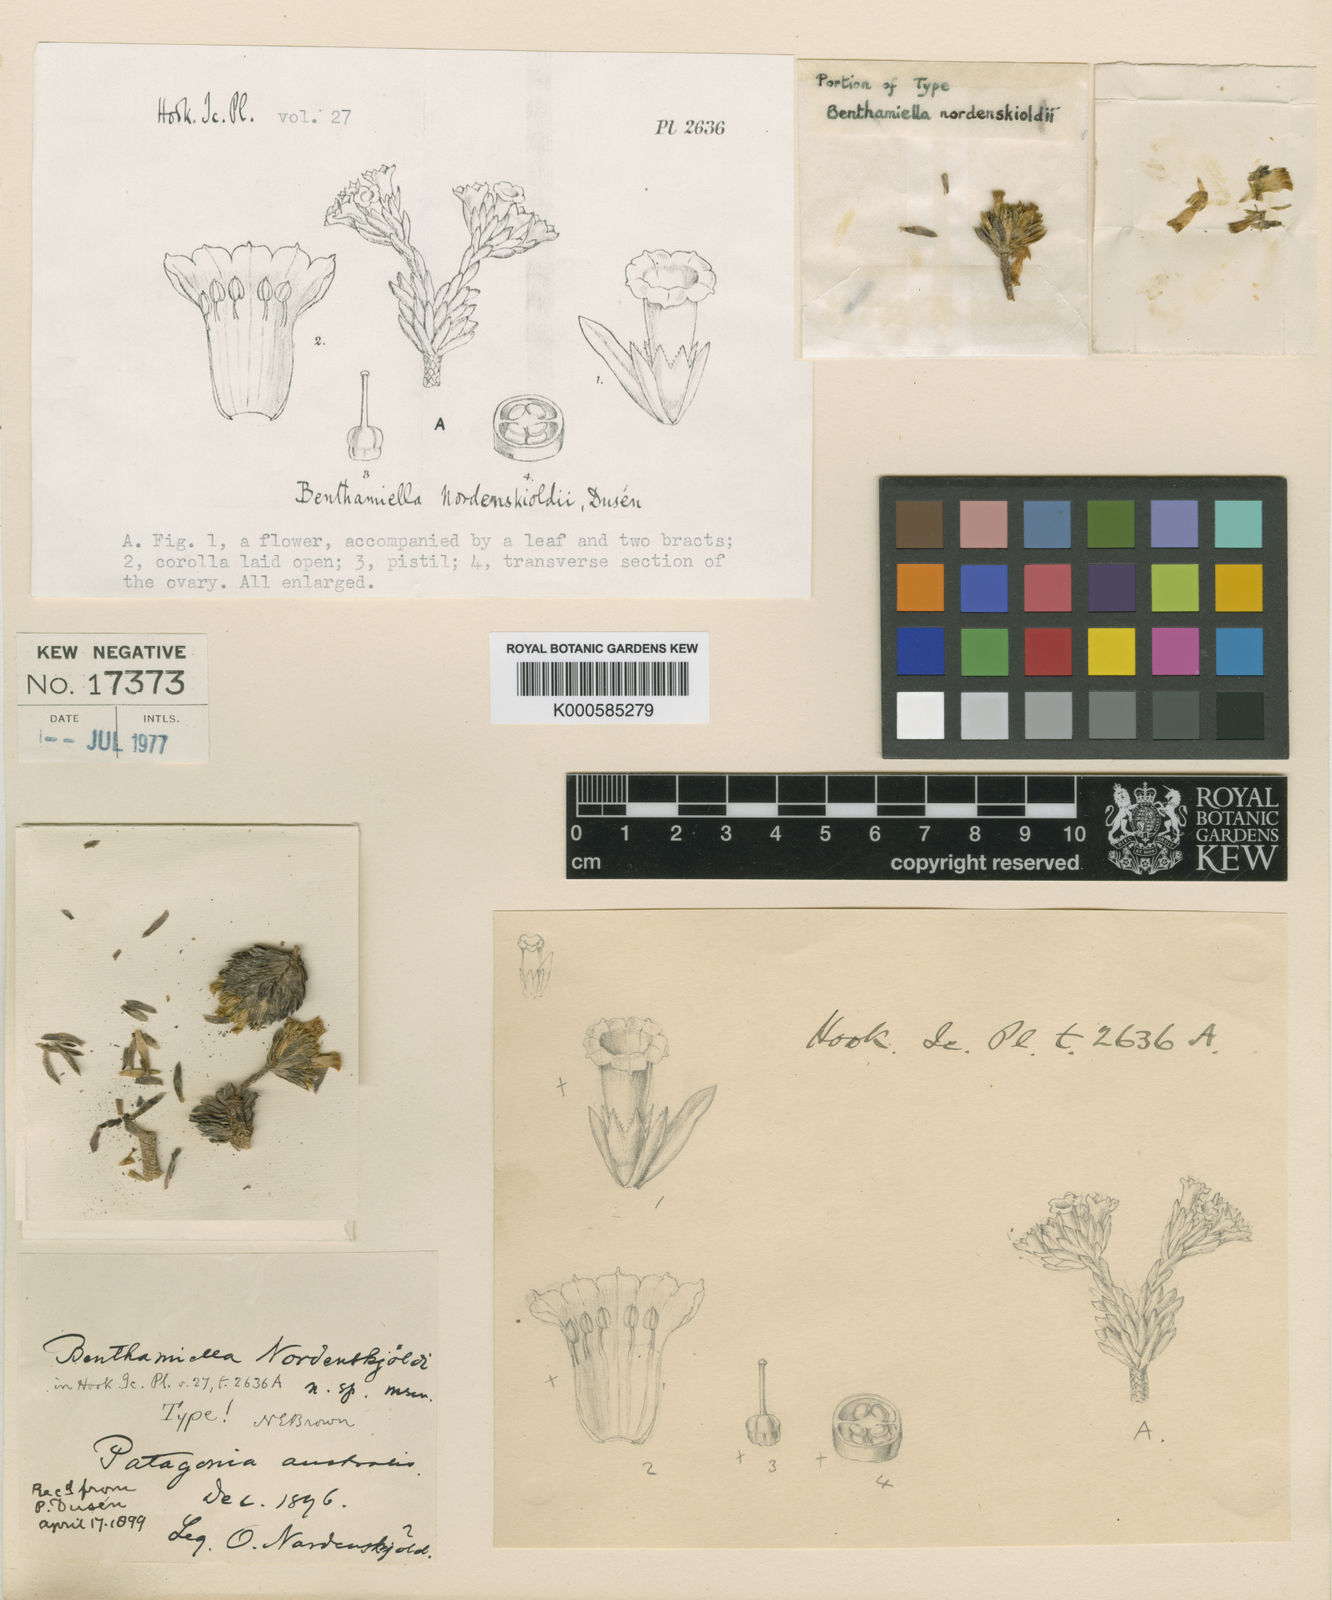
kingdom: Plantae
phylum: Tracheophyta
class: Magnoliopsida
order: Solanales
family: Solanaceae
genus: Benthamiella
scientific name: Benthamiella
